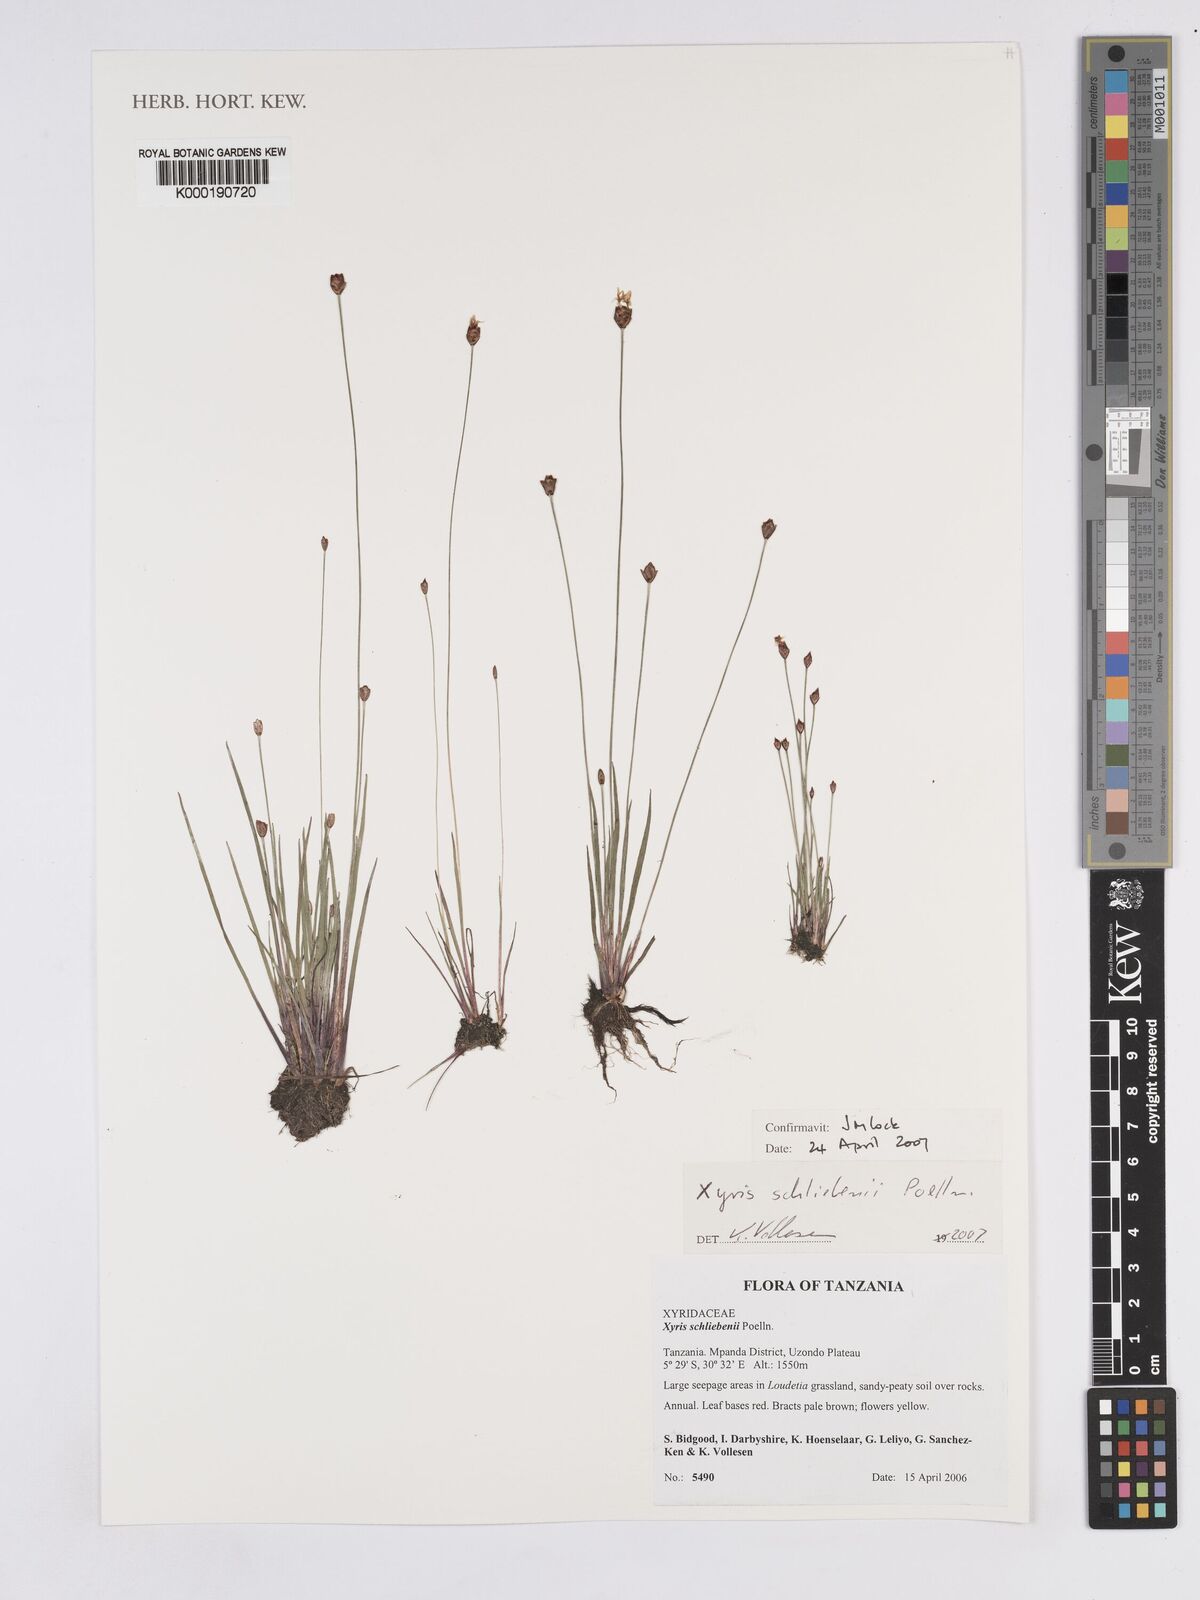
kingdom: Plantae
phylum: Tracheophyta
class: Liliopsida
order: Poales
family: Xyridaceae
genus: Xyris
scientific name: Xyris schliebenii
